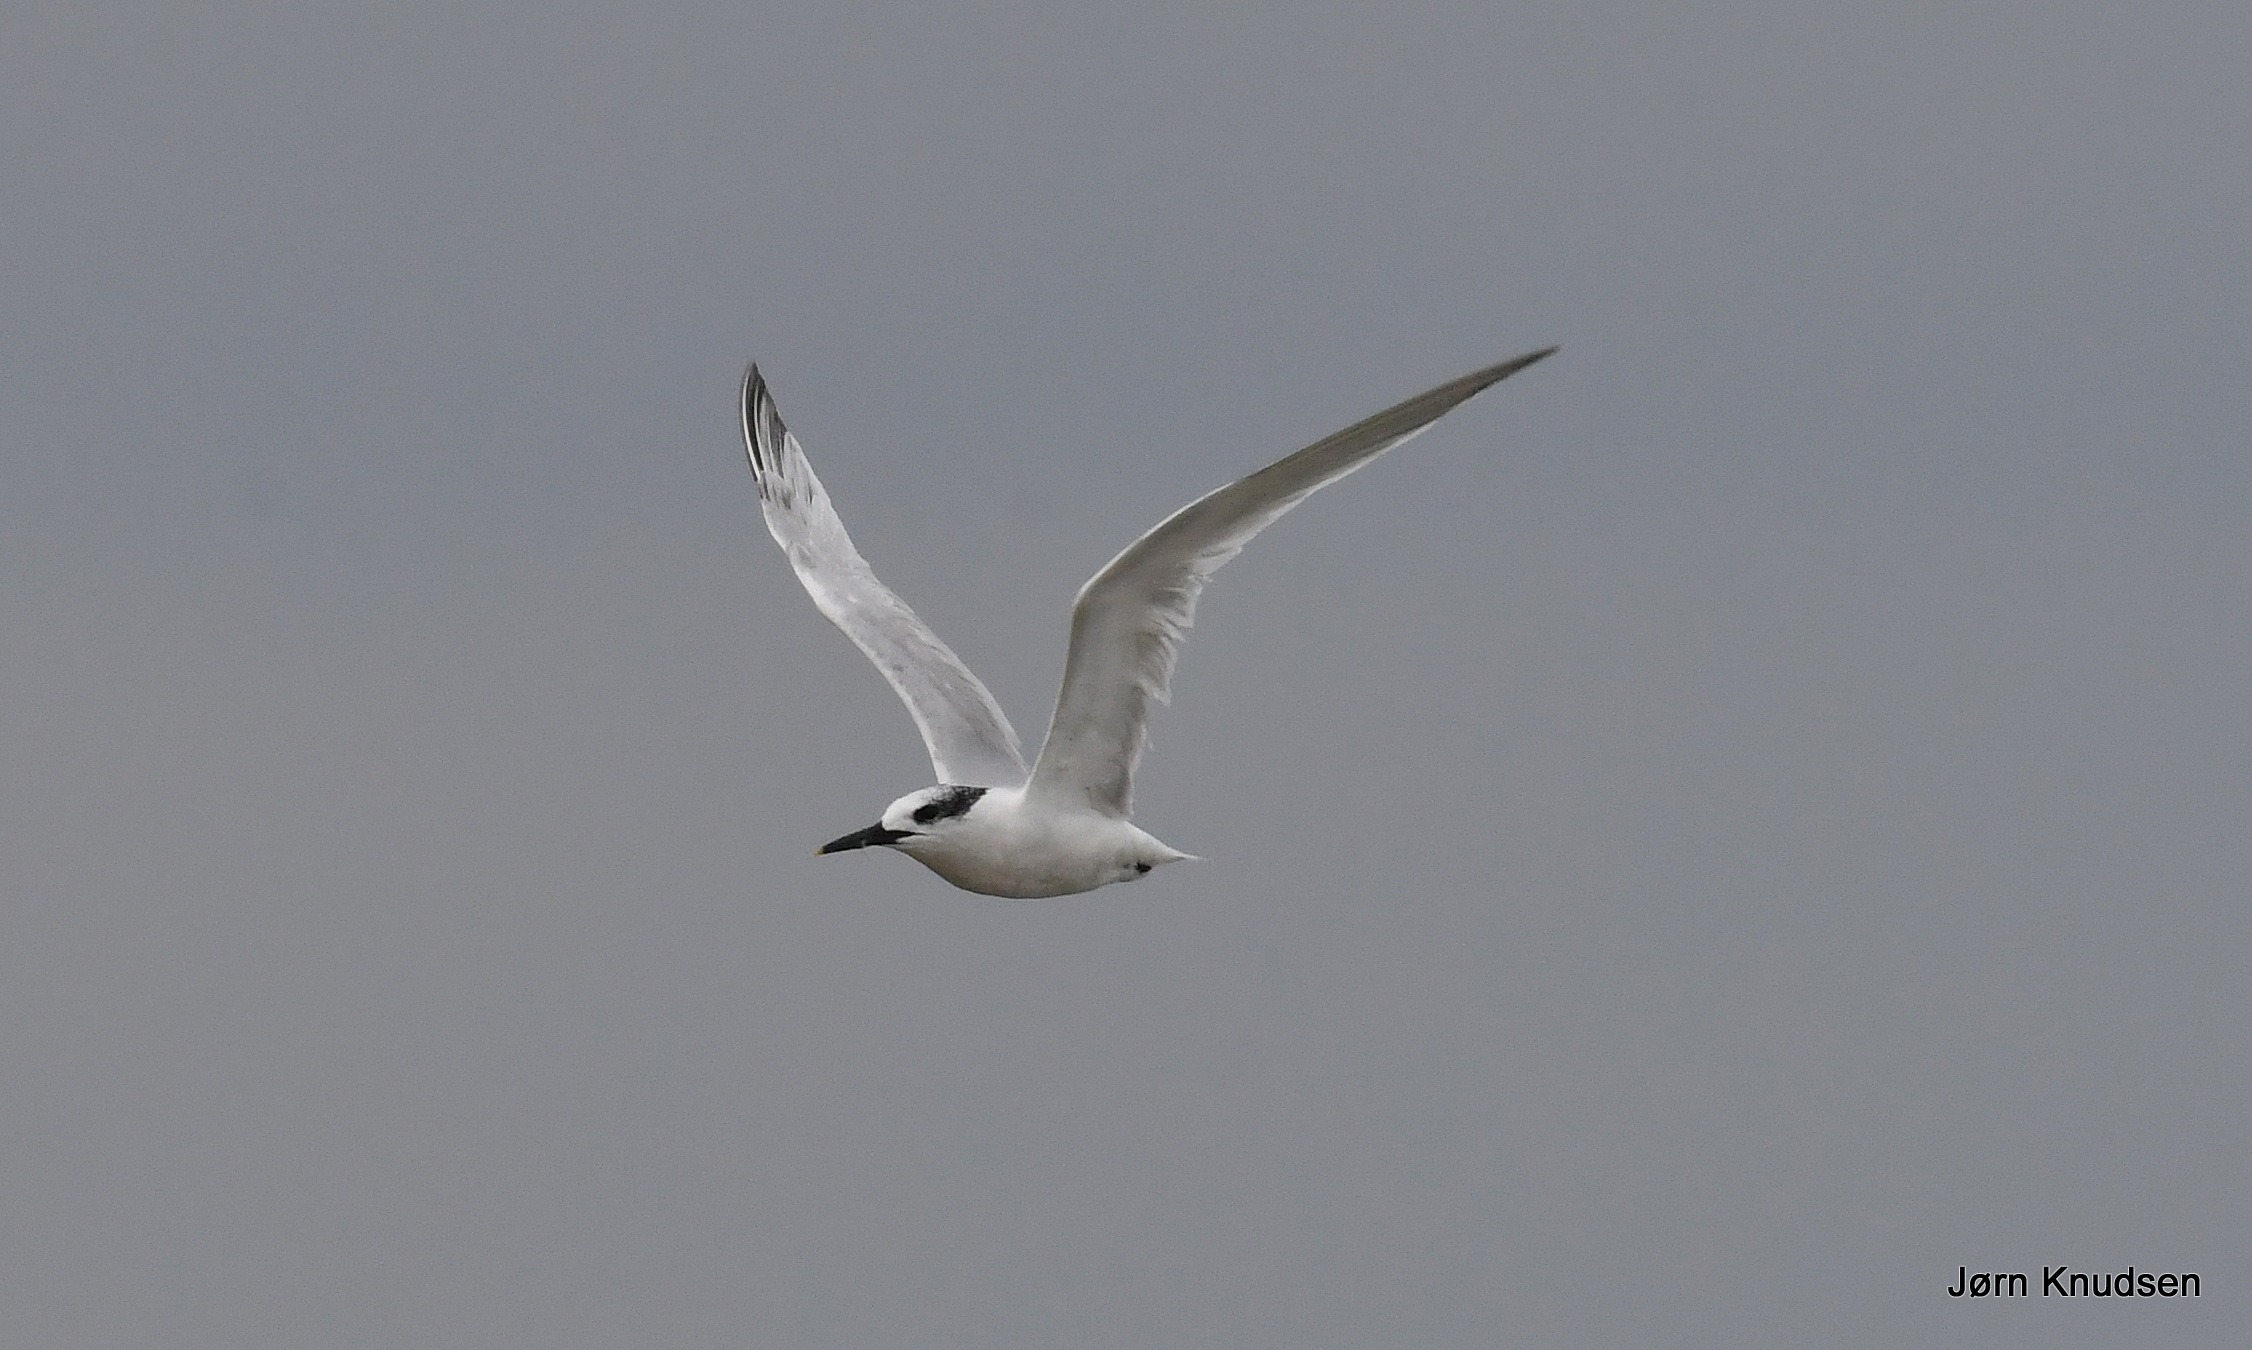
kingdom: Animalia
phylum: Chordata
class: Aves
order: Charadriiformes
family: Laridae
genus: Thalasseus
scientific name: Thalasseus sandvicensis
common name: Splitterne
